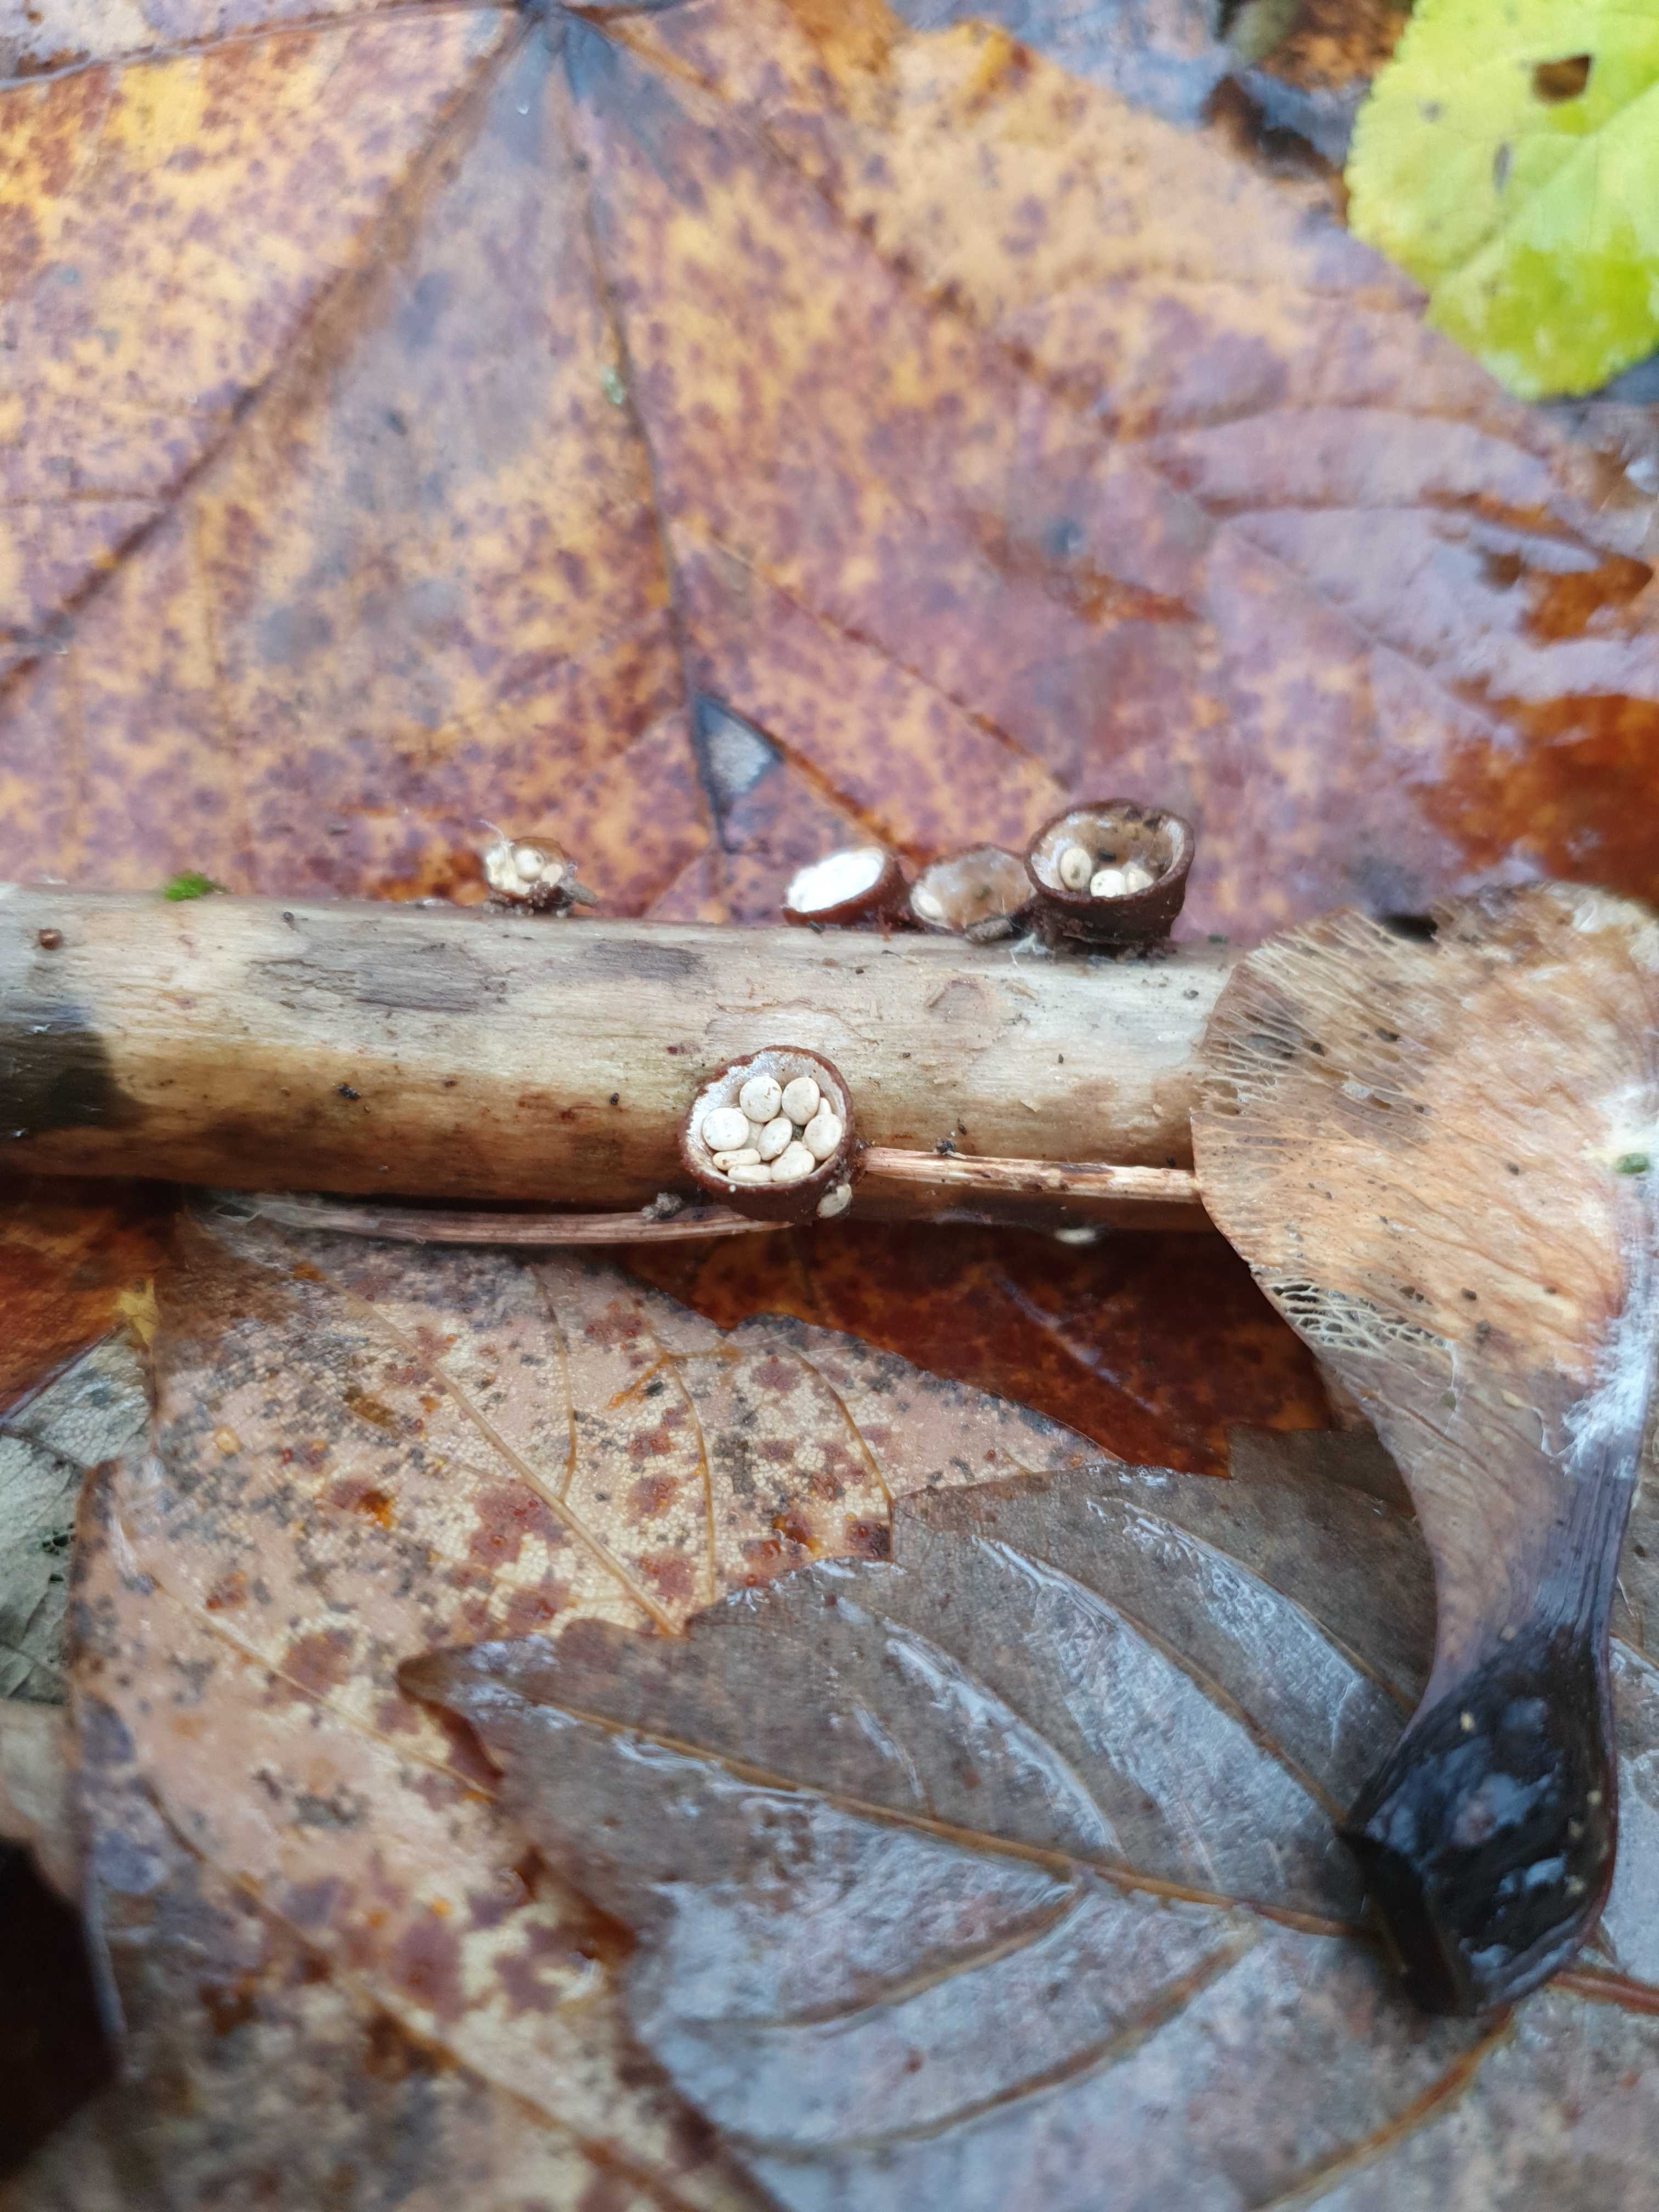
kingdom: Fungi
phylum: Basidiomycota
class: Agaricomycetes
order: Agaricales
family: Nidulariaceae
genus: Crucibulum
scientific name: Crucibulum crucibuliforme
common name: krukkesvamp
